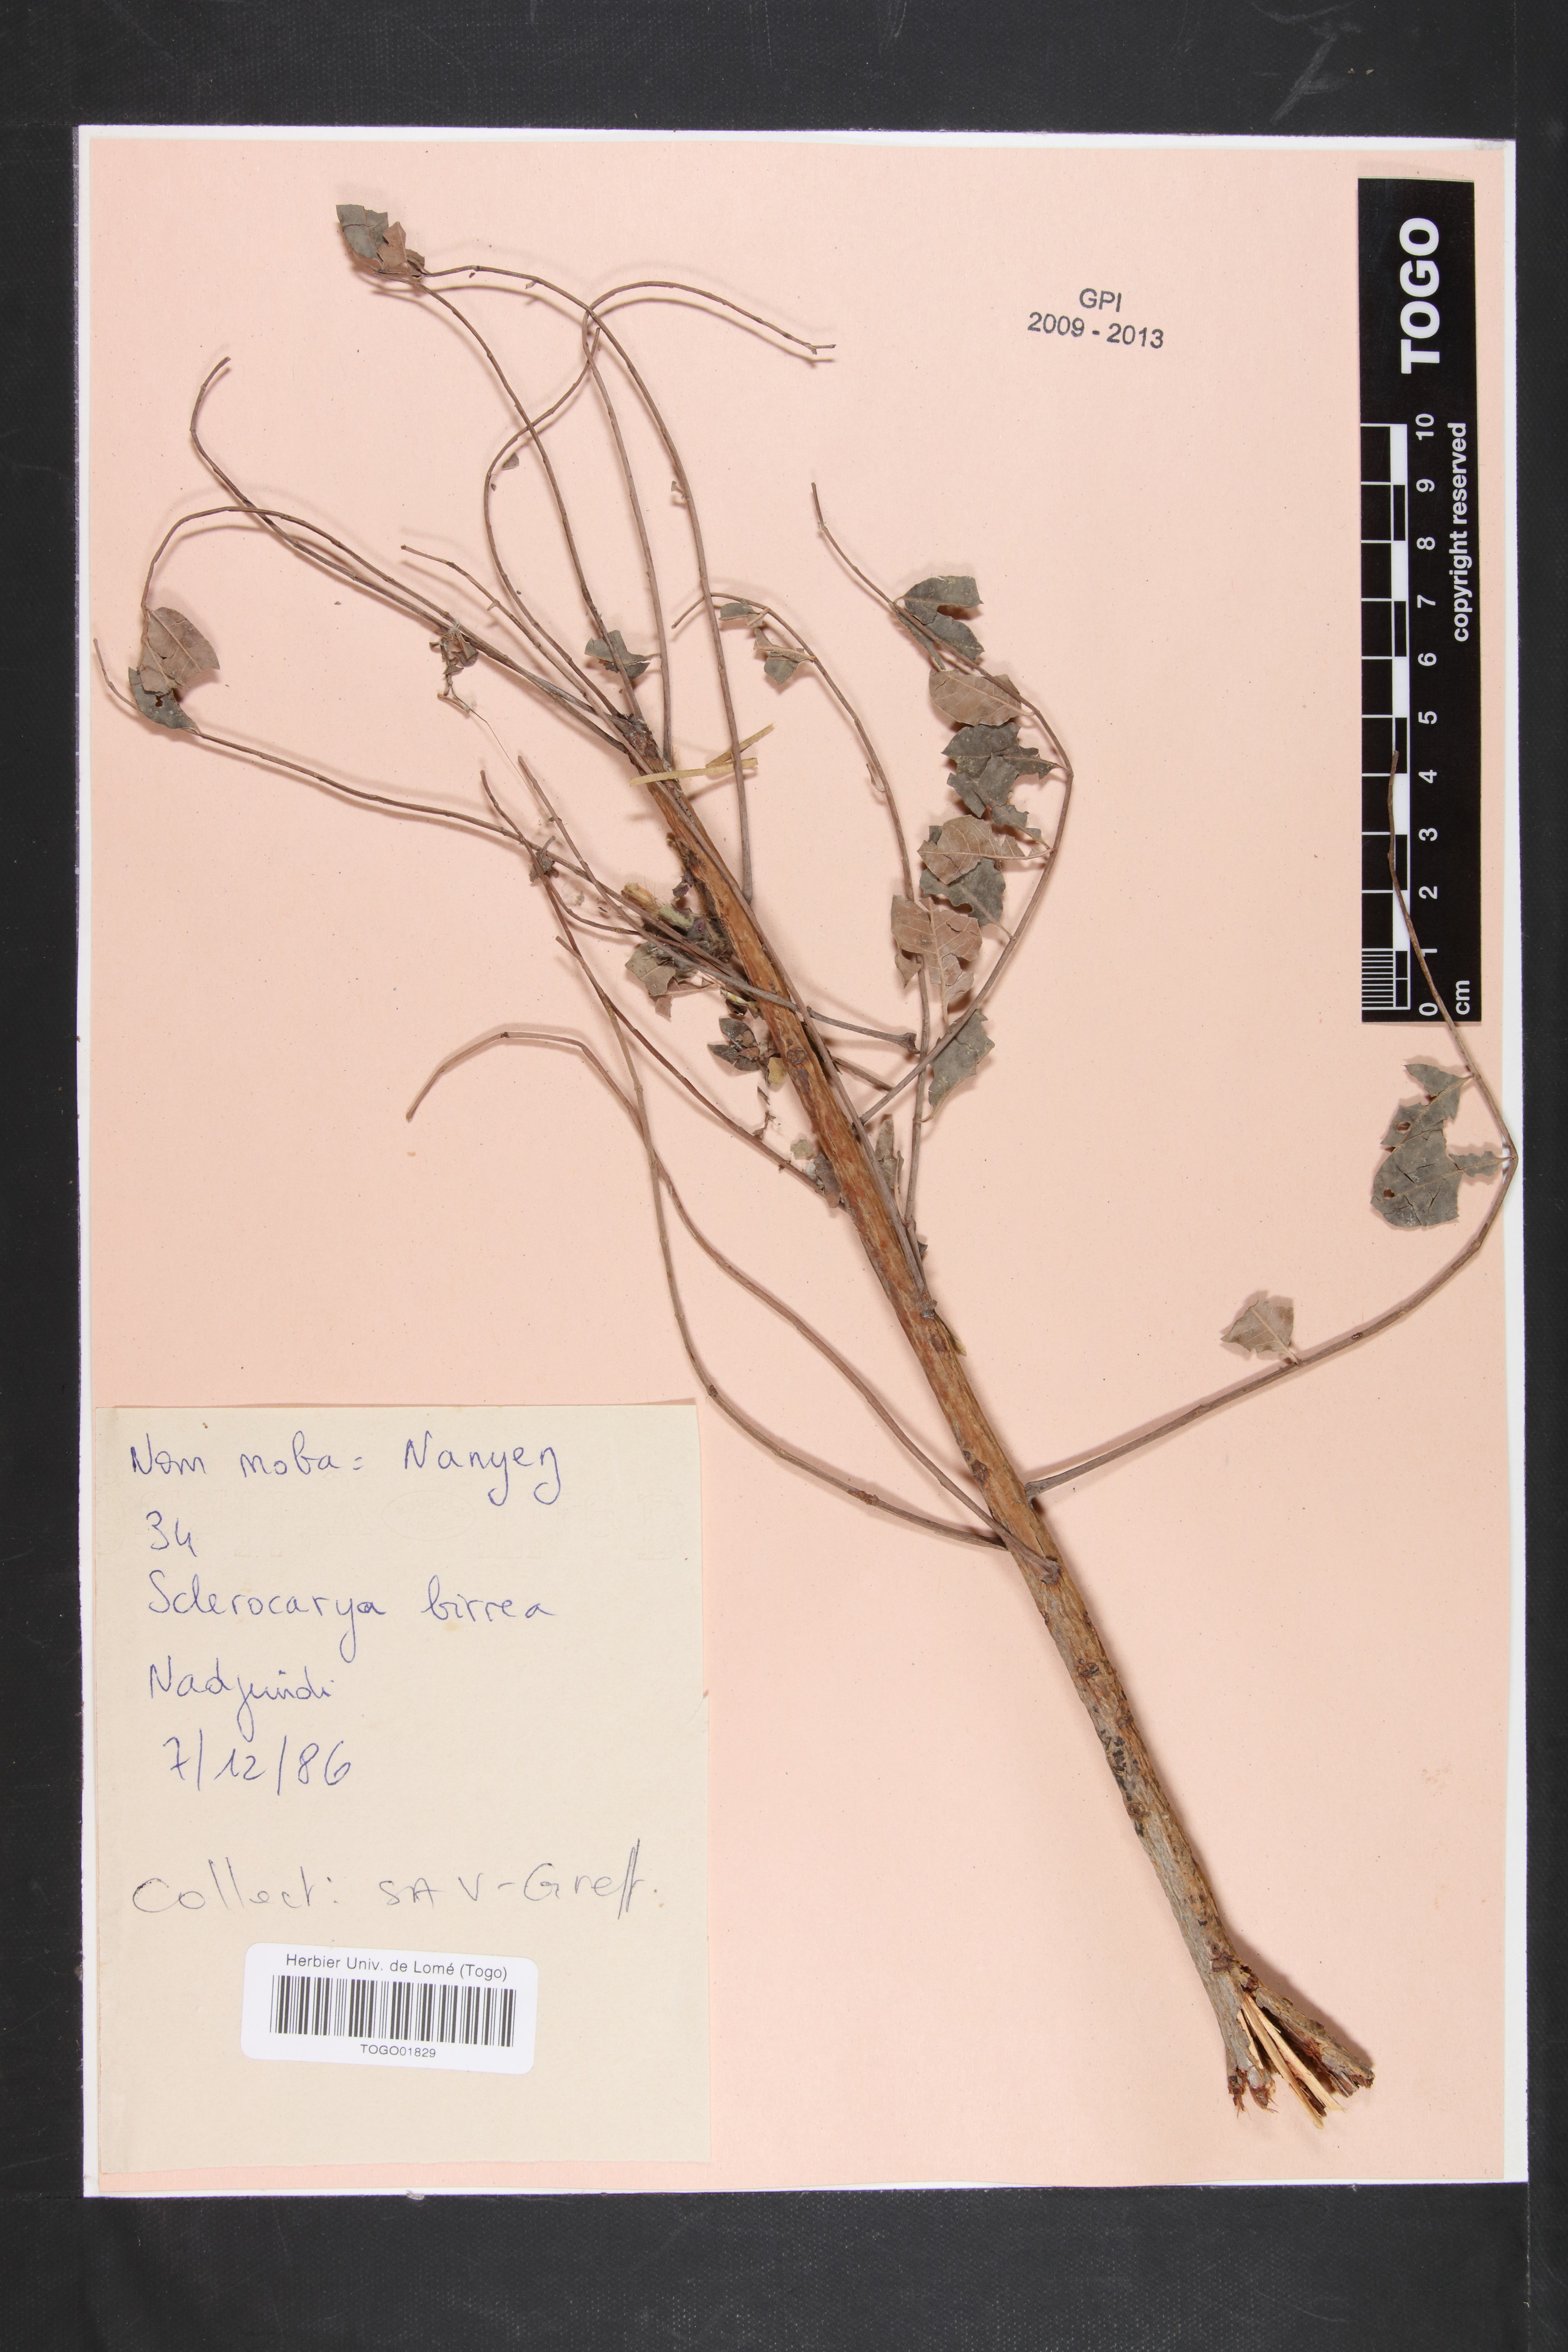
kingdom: Plantae
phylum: Tracheophyta
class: Magnoliopsida
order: Sapindales
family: Anacardiaceae
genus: Sclerocarya
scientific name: Sclerocarya birrea
